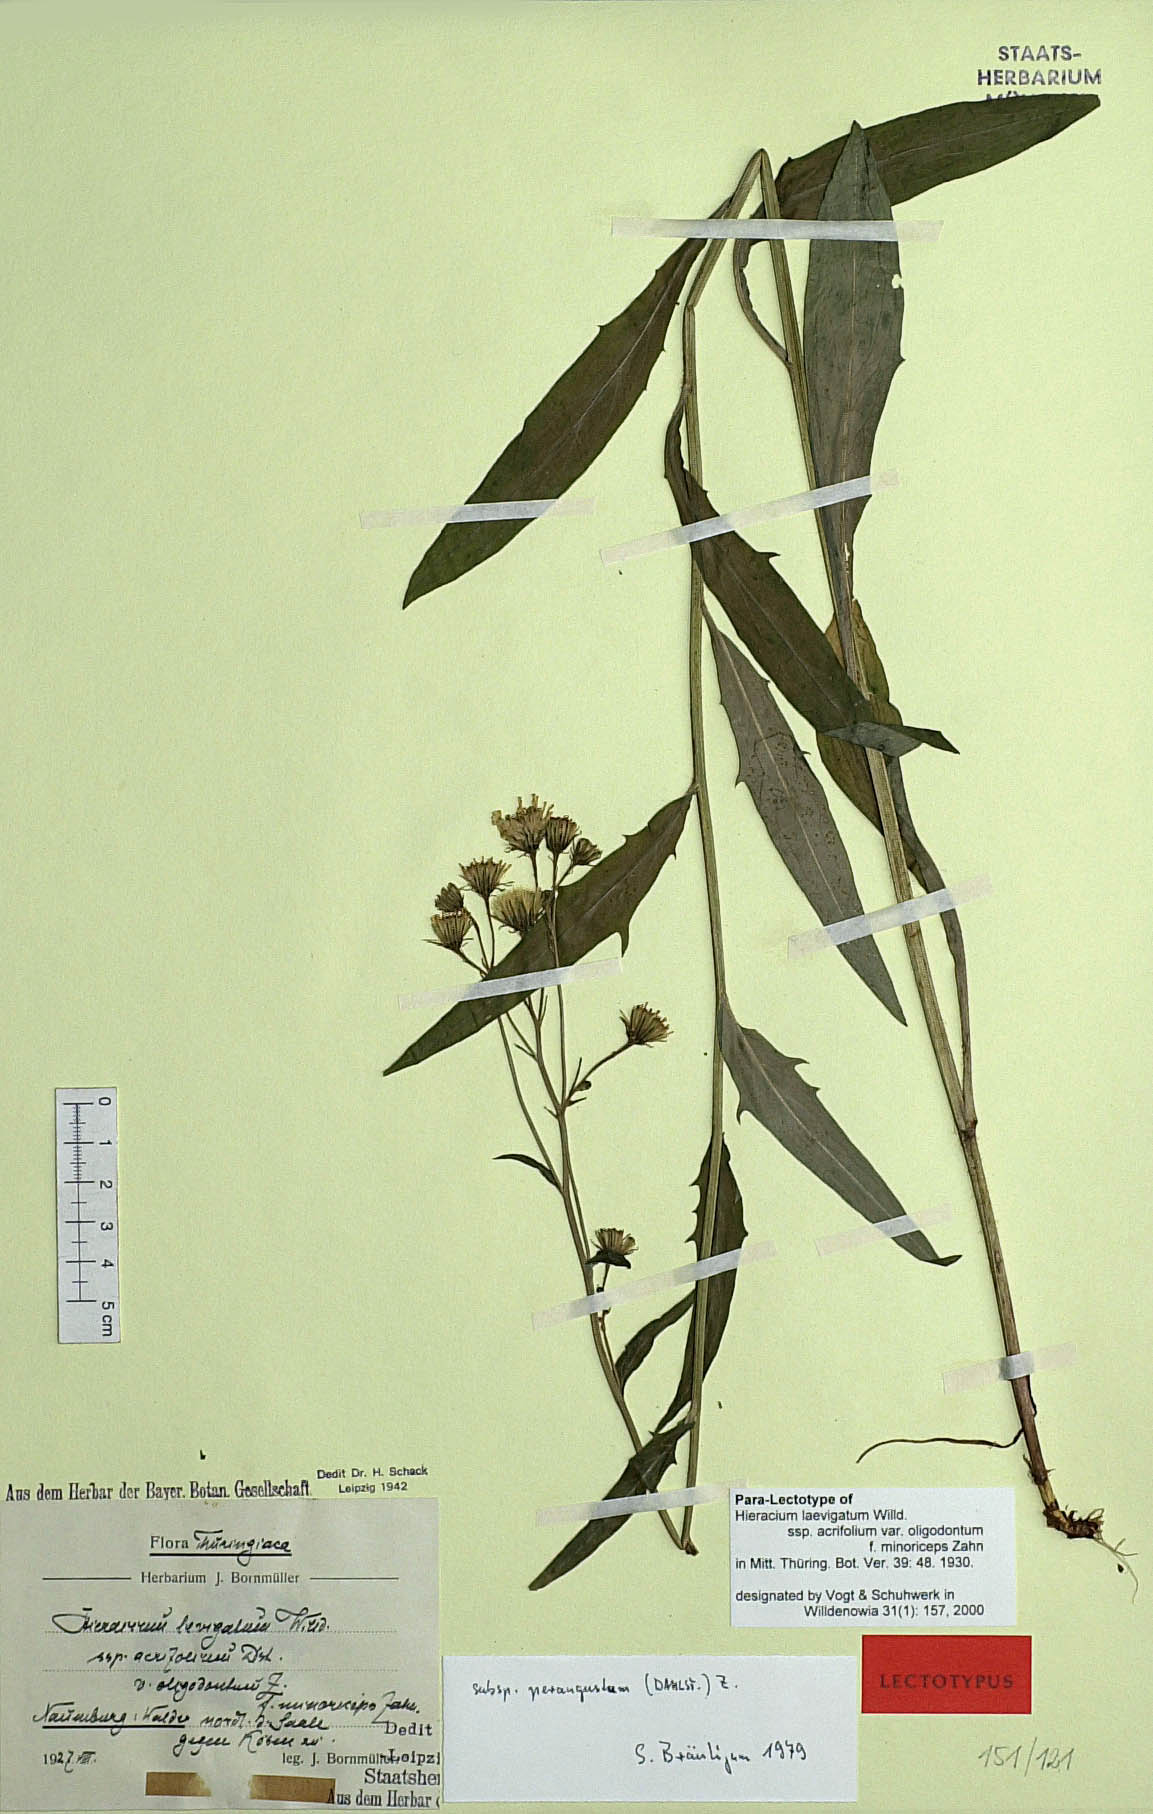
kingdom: Plantae
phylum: Tracheophyta
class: Magnoliopsida
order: Asterales
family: Asteraceae
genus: Hieracium
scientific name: Hieracium laevigatum
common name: Smooth hawkweed
